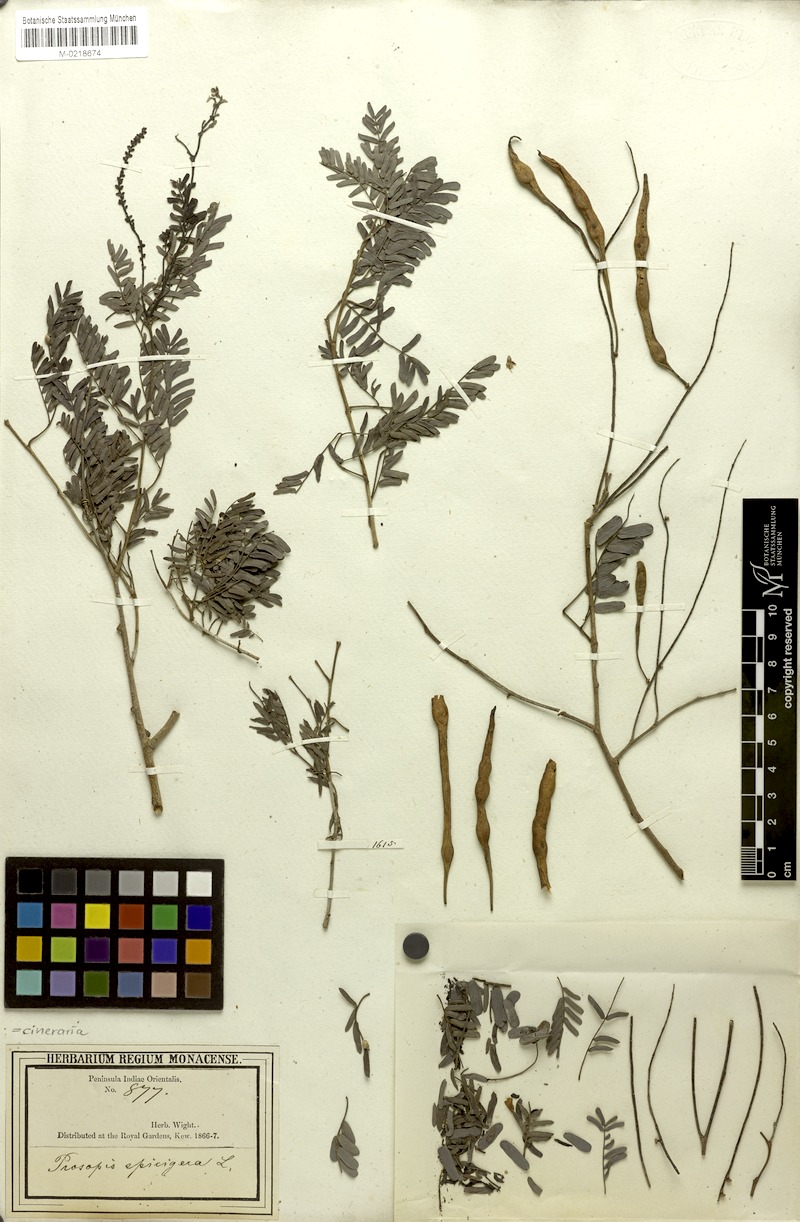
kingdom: Plantae
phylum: Tracheophyta
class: Magnoliopsida
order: Fabales
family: Fabaceae
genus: Prosopis
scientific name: Prosopis cineraria
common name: Jandi
